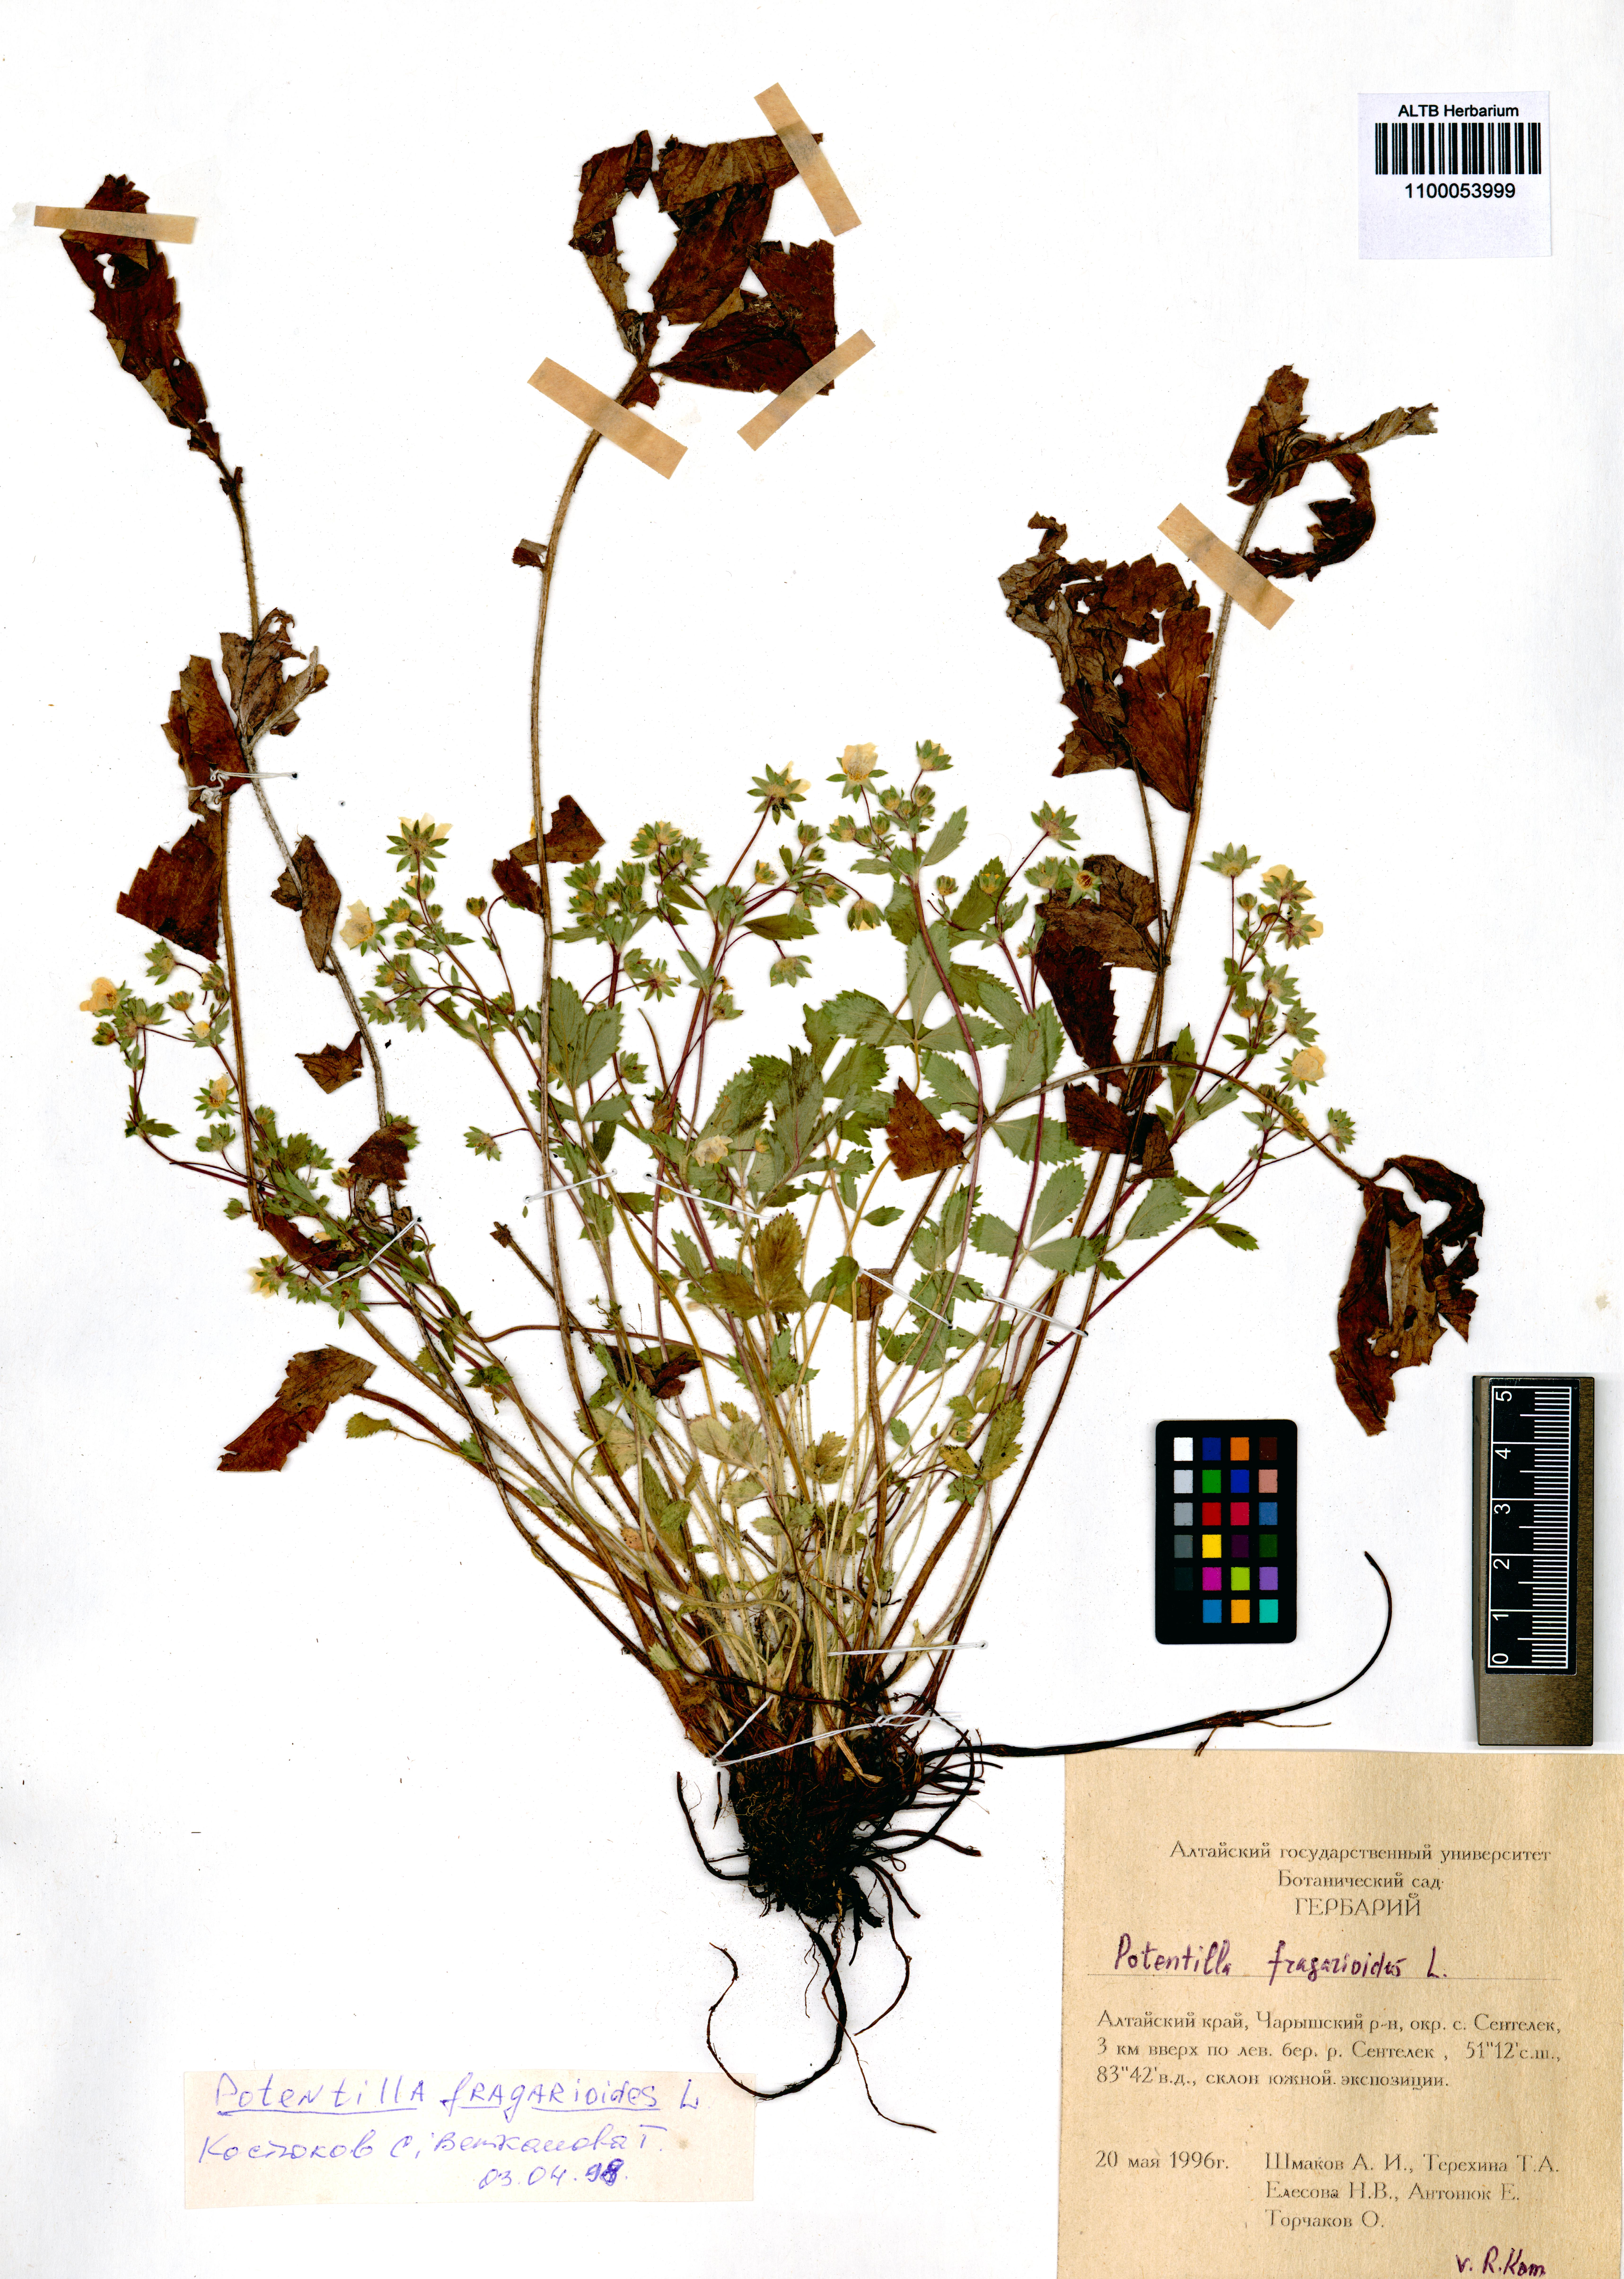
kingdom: Plantae
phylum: Tracheophyta
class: Magnoliopsida
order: Rosales
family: Rosaceae
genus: Potentilla
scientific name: Potentilla fragarioides
